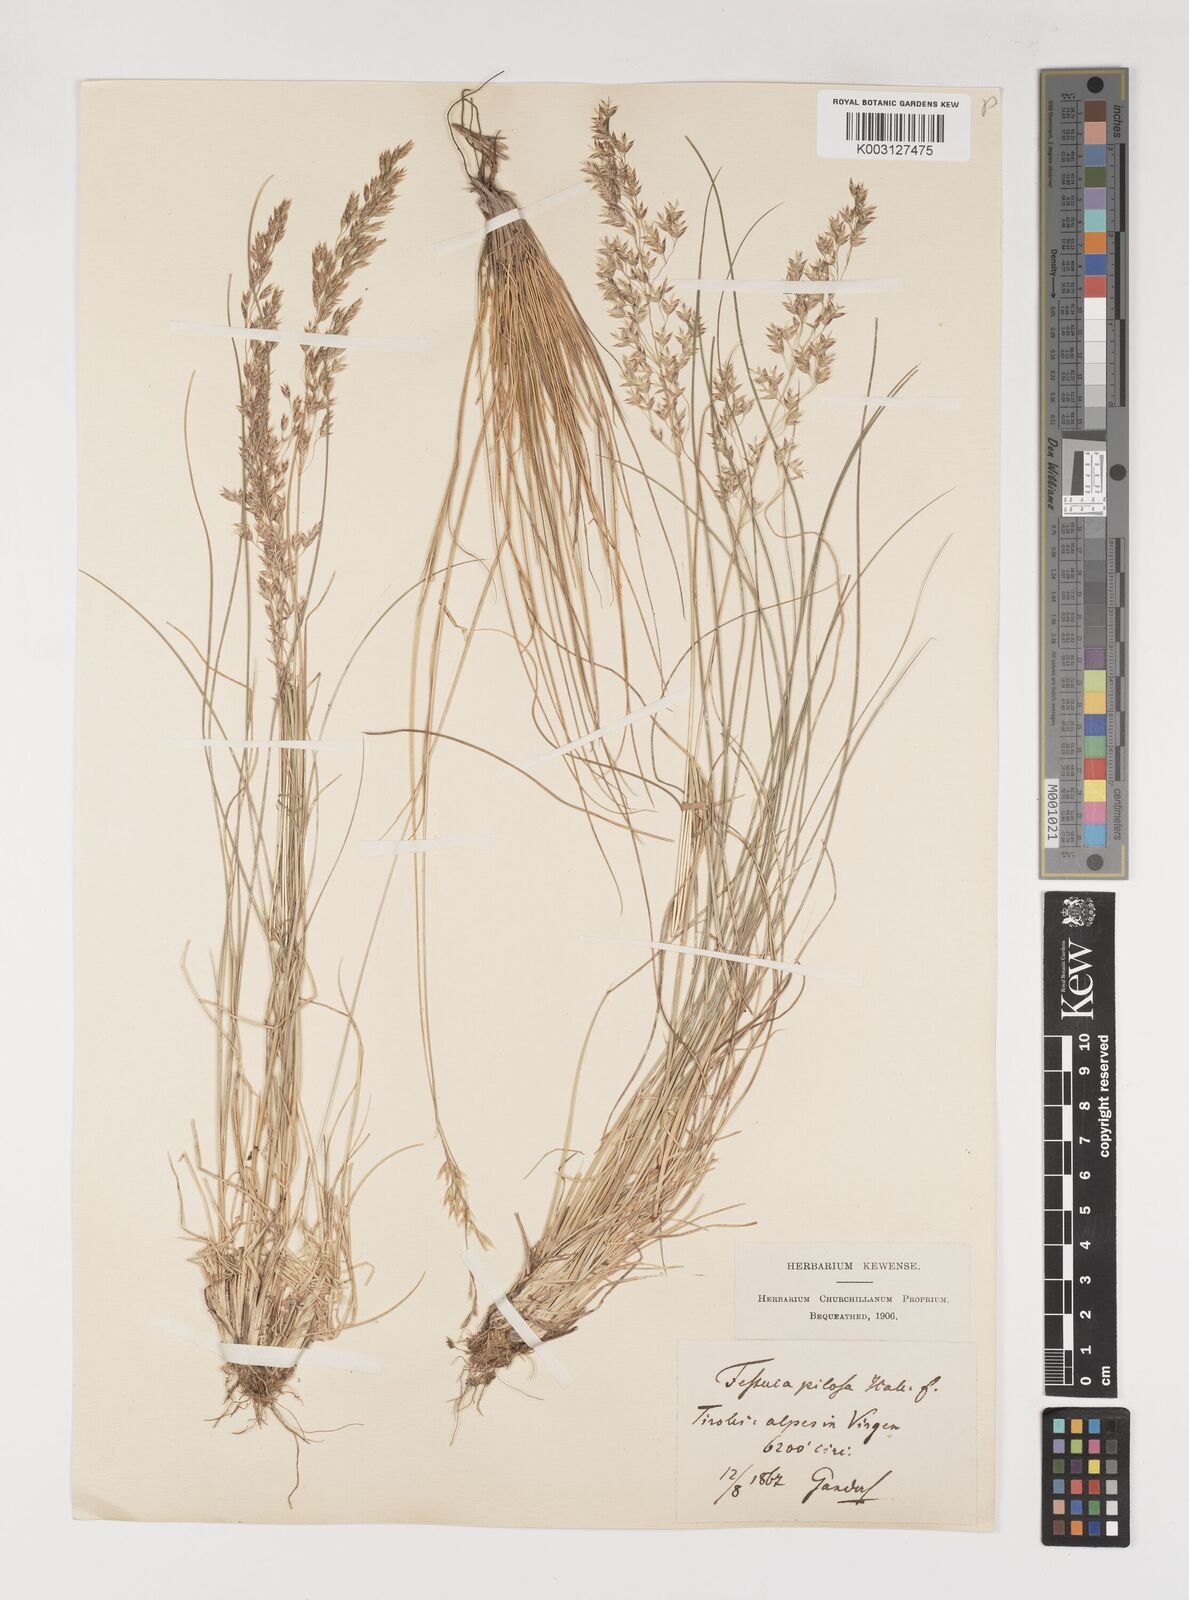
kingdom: Plantae
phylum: Tracheophyta
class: Liliopsida
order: Poales
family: Poaceae
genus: Bellardiochloa
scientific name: Bellardiochloa variegata
